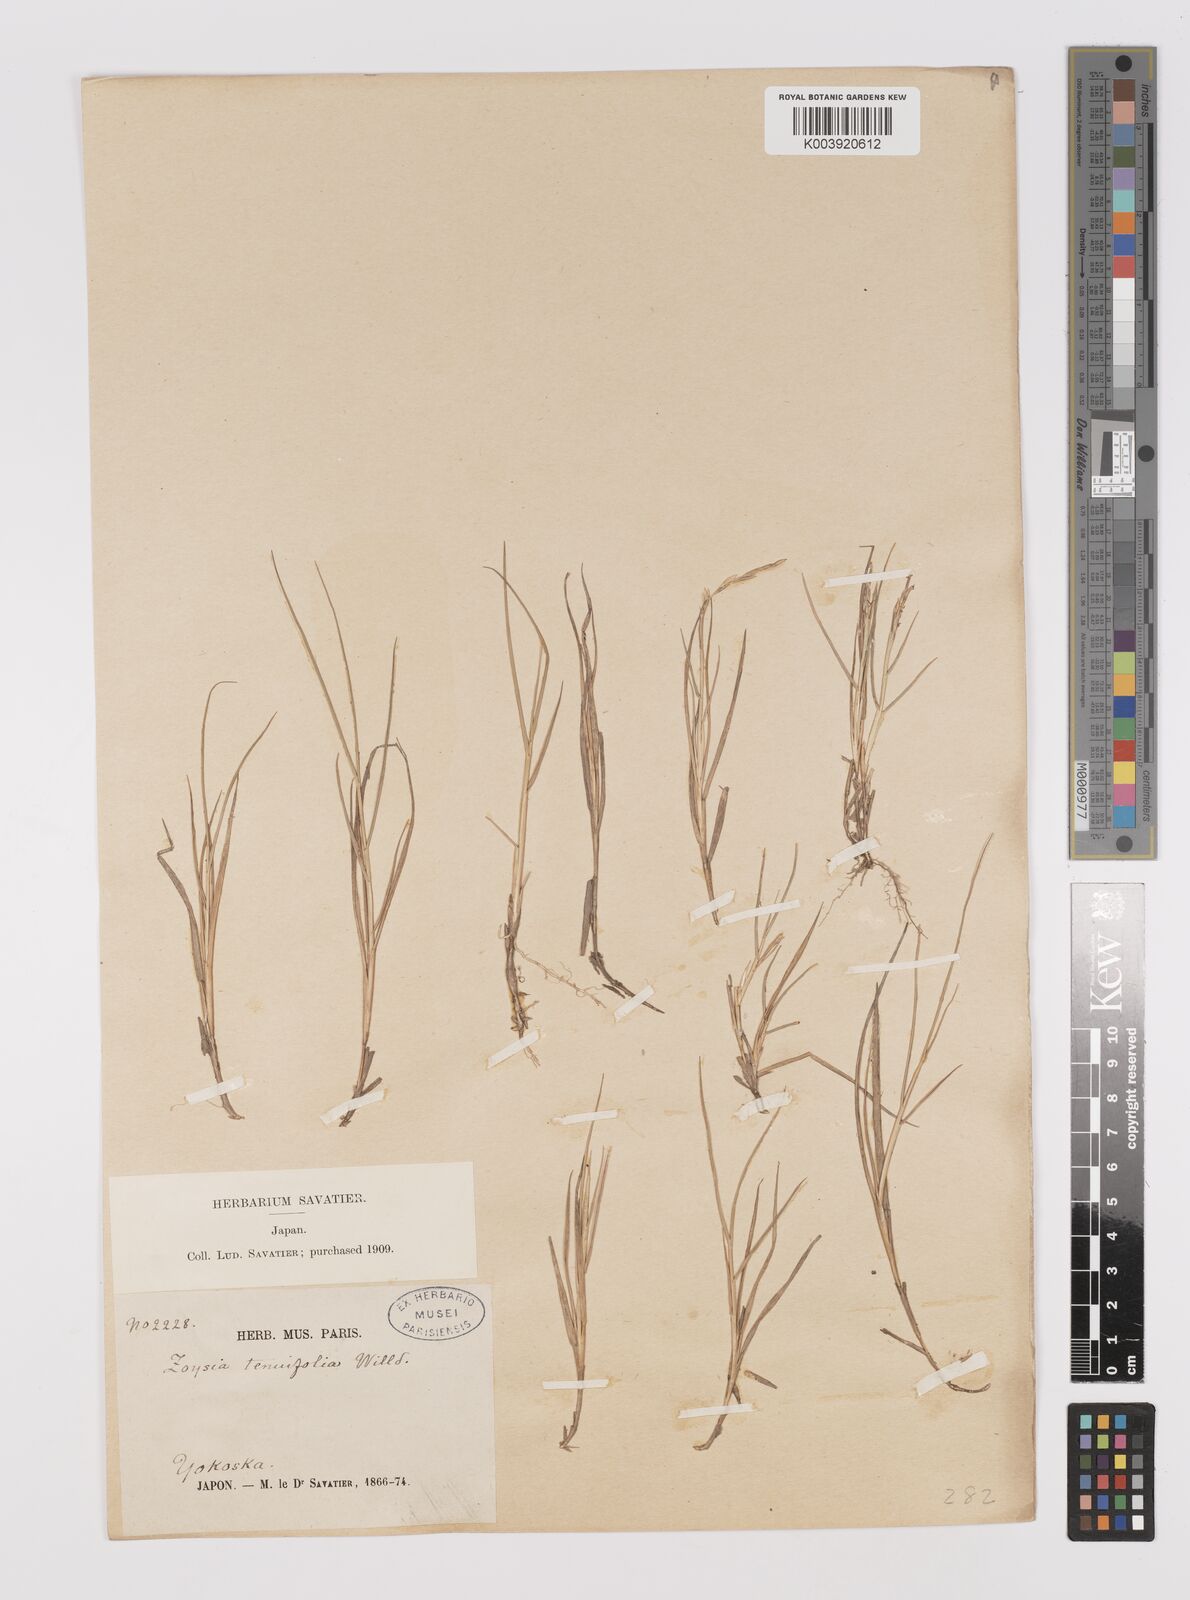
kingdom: Plantae
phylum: Tracheophyta
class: Liliopsida
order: Poales
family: Poaceae
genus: Zoysia
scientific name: Zoysia sinica
